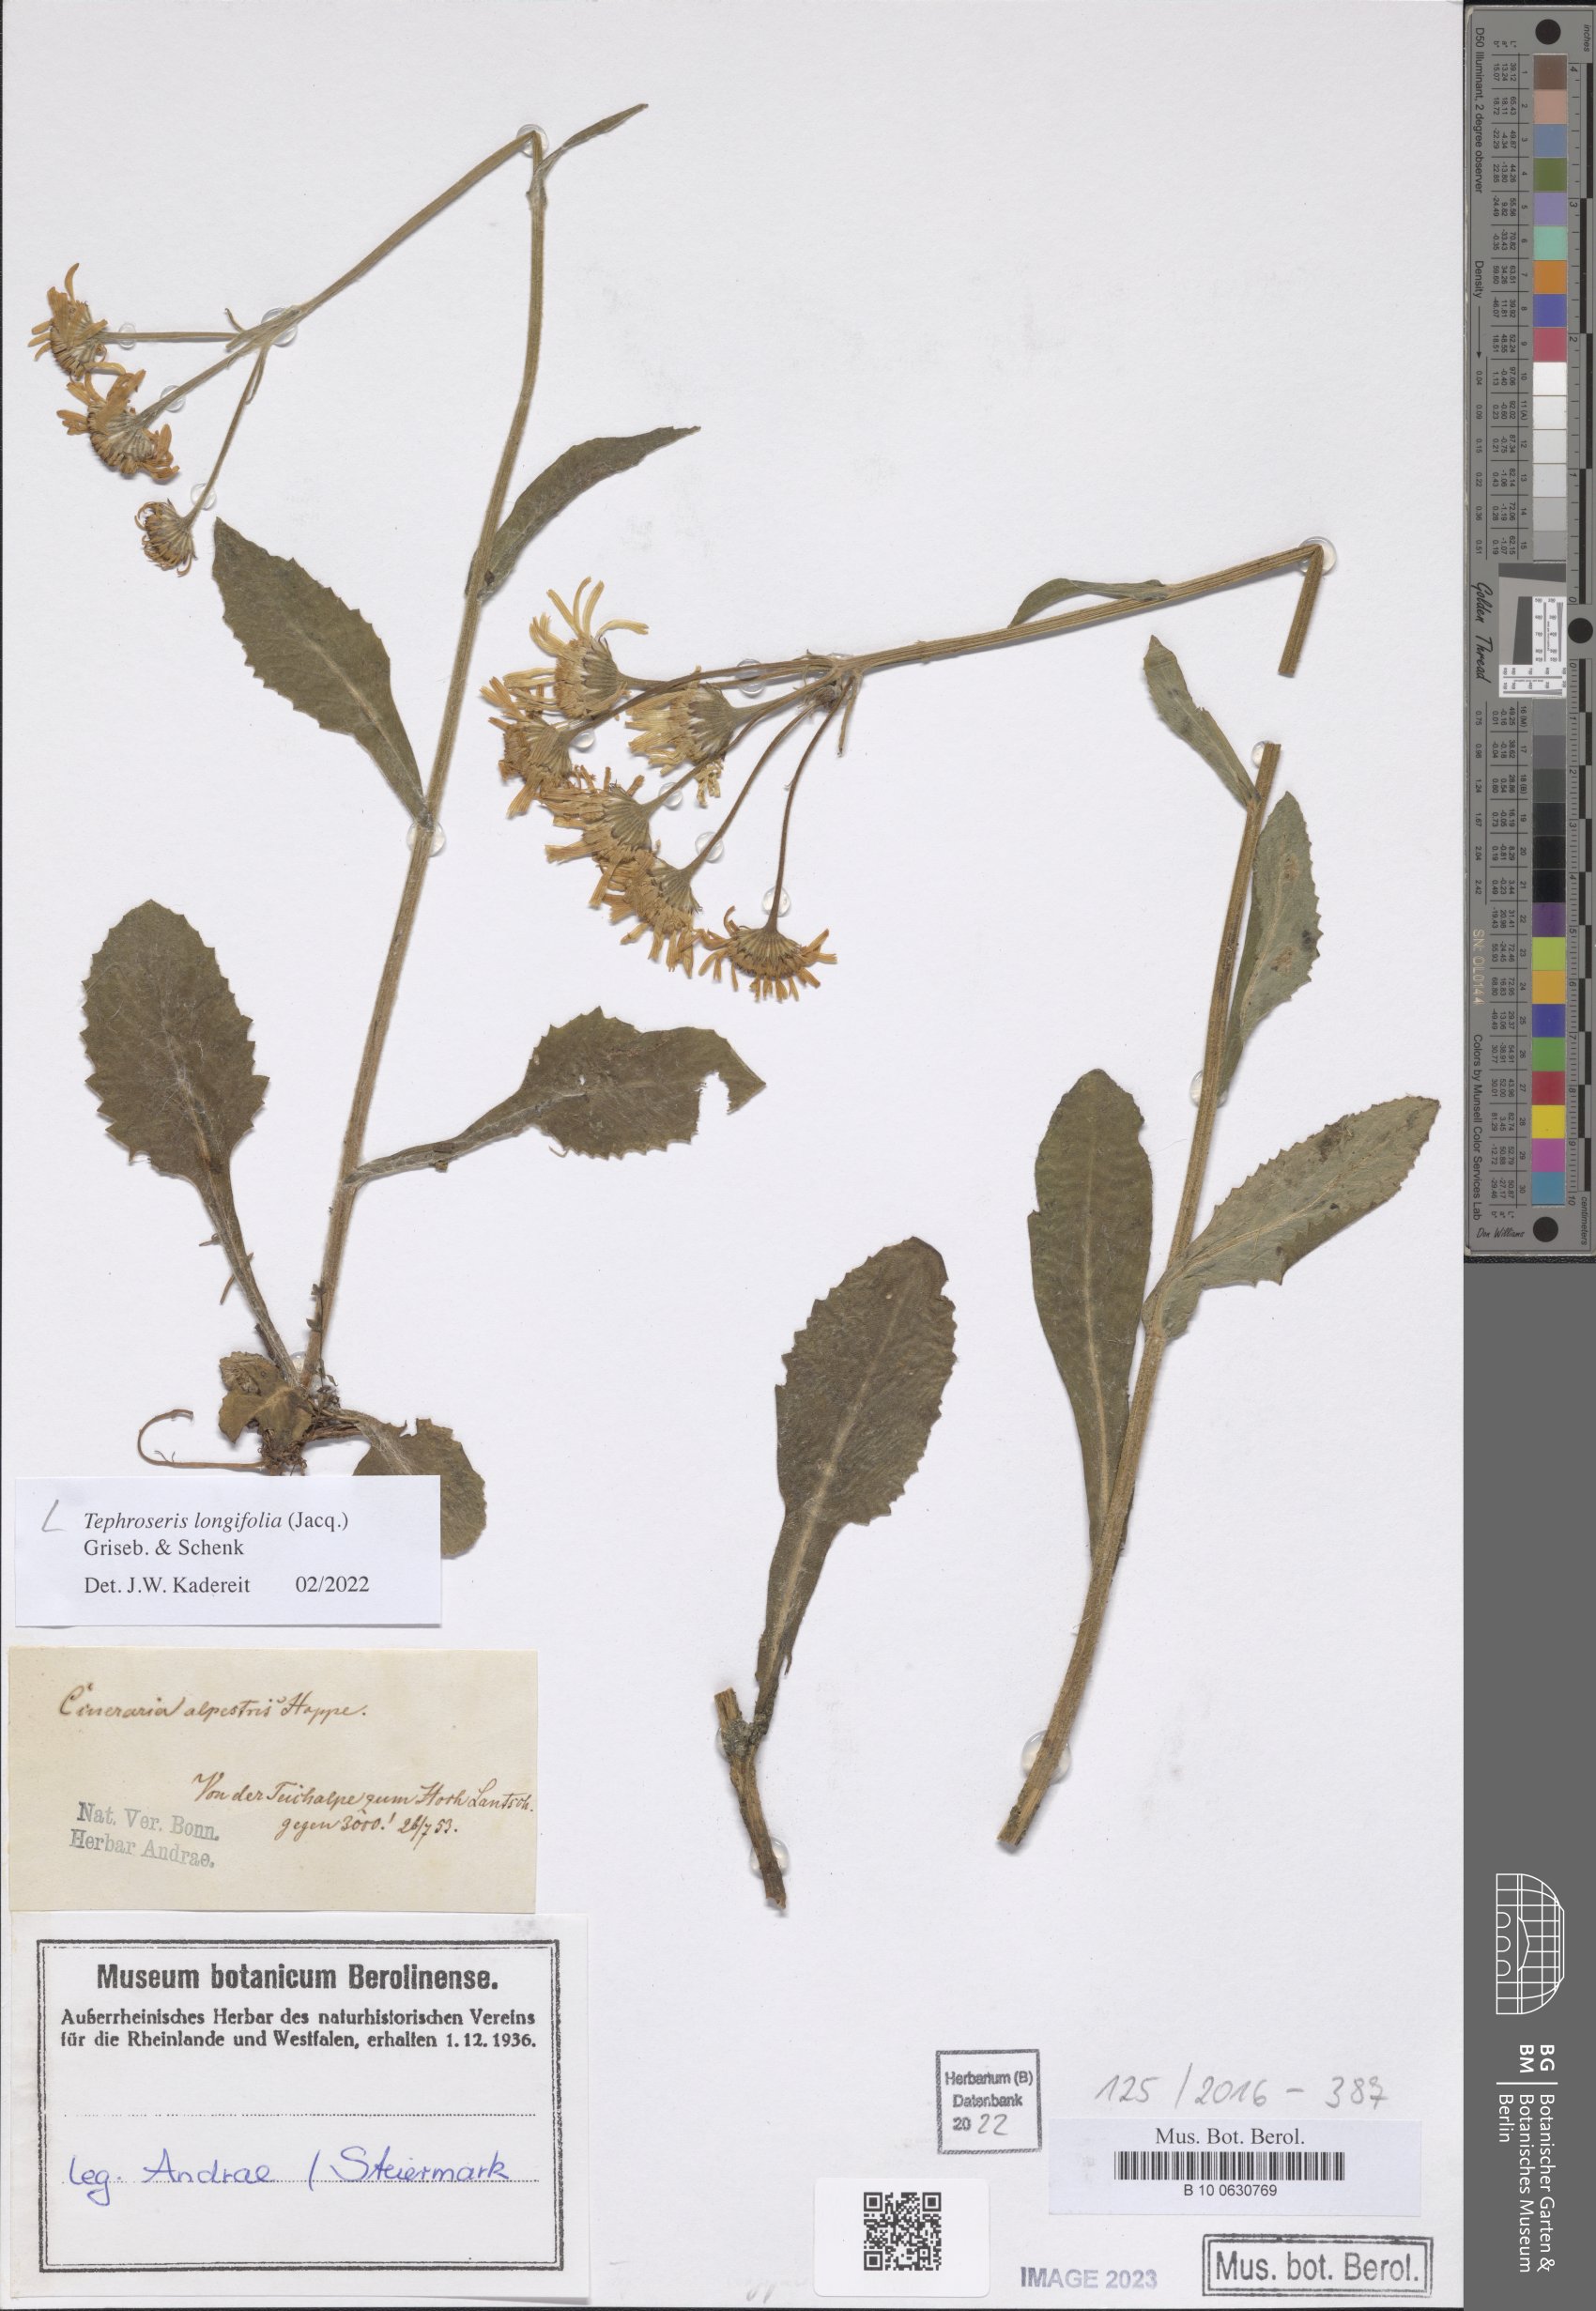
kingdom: Plantae
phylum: Tracheophyta
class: Magnoliopsida
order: Asterales
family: Asteraceae
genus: Tephroseris
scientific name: Tephroseris longifolia
